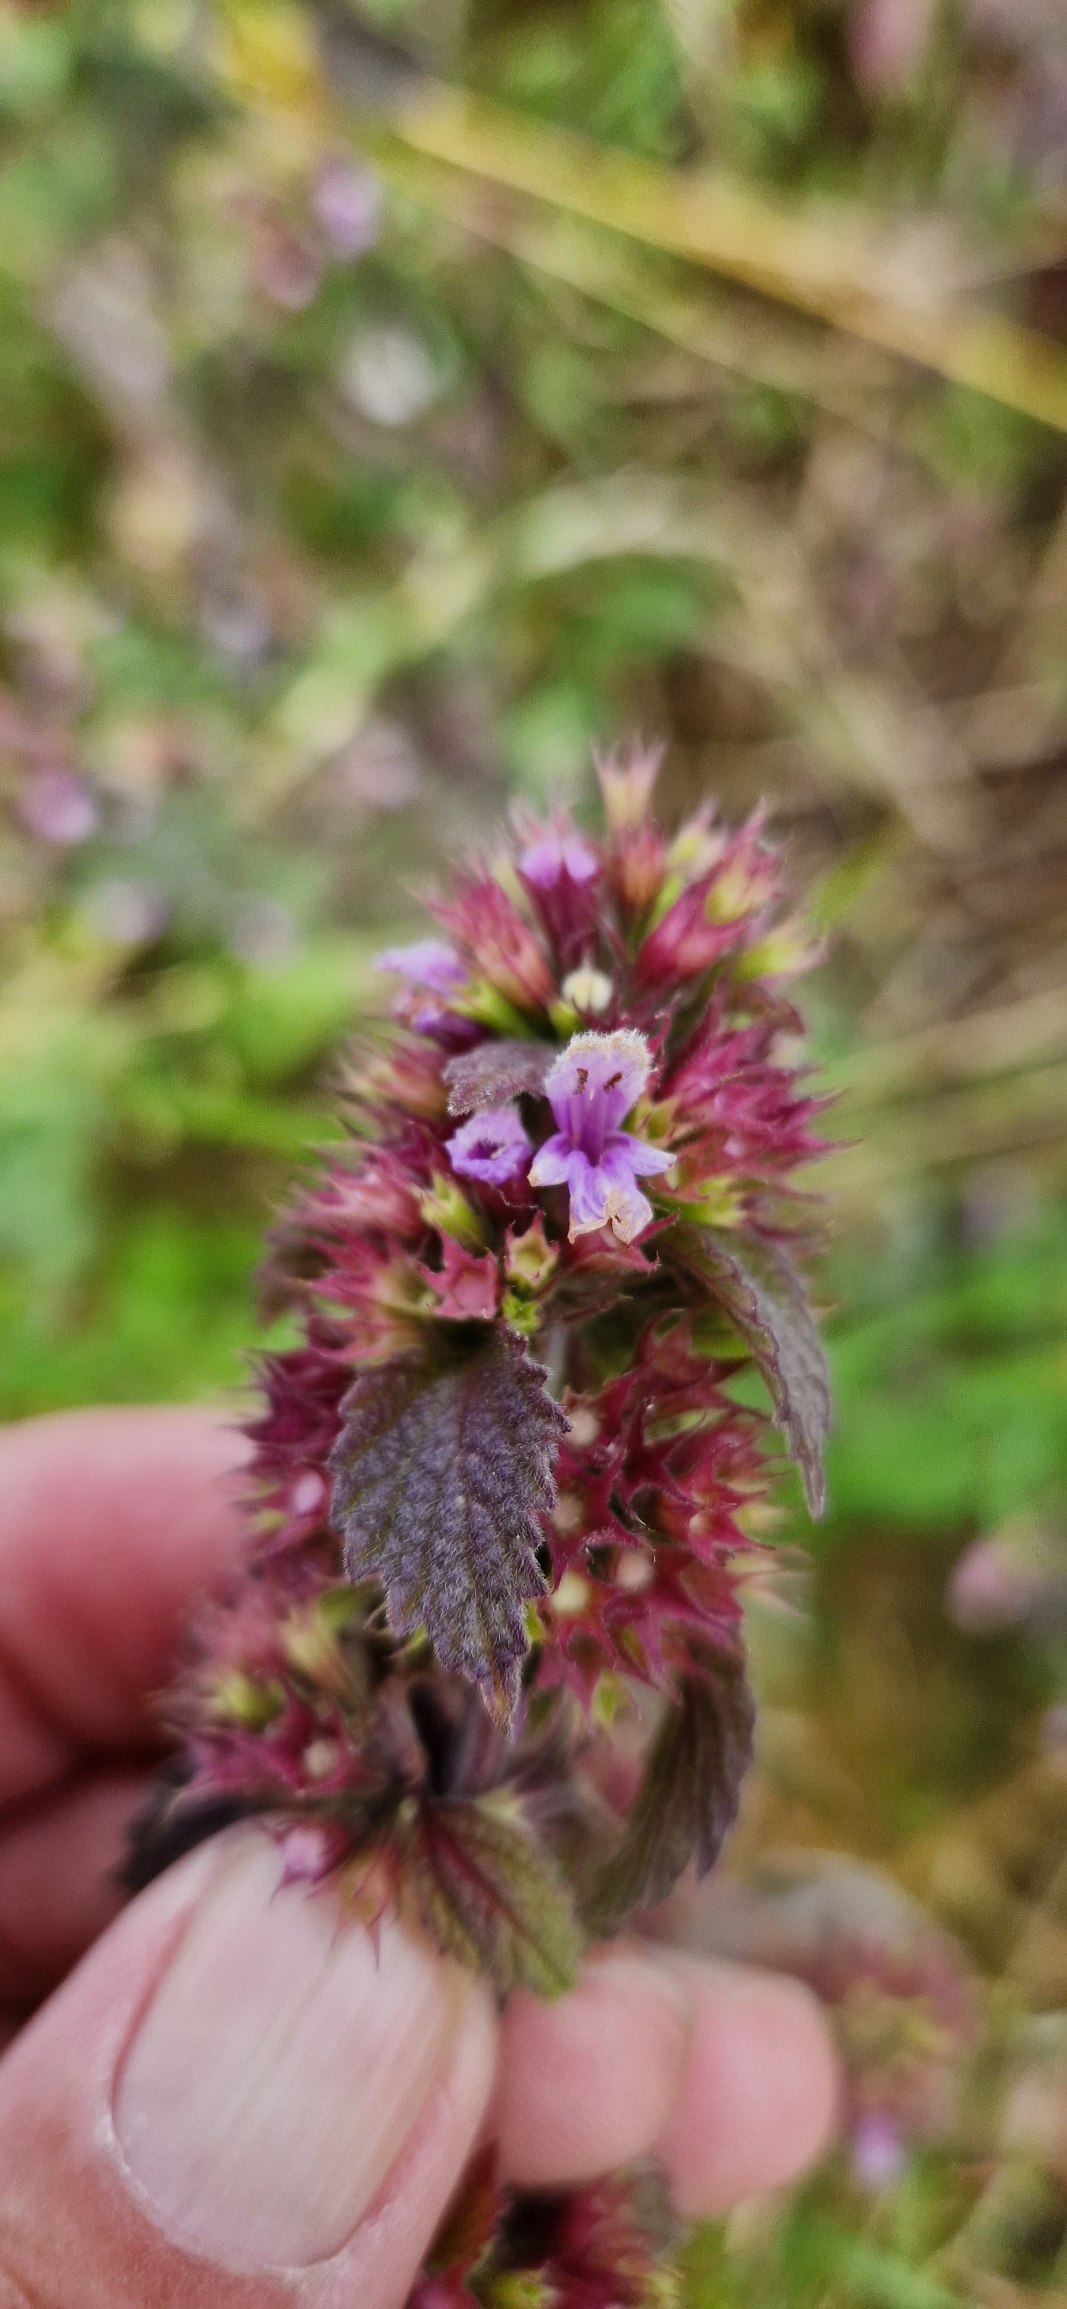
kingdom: Plantae
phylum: Tracheophyta
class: Magnoliopsida
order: Lamiales
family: Lamiaceae
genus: Ballota
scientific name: Ballota nigra
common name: Rød tandbæger
